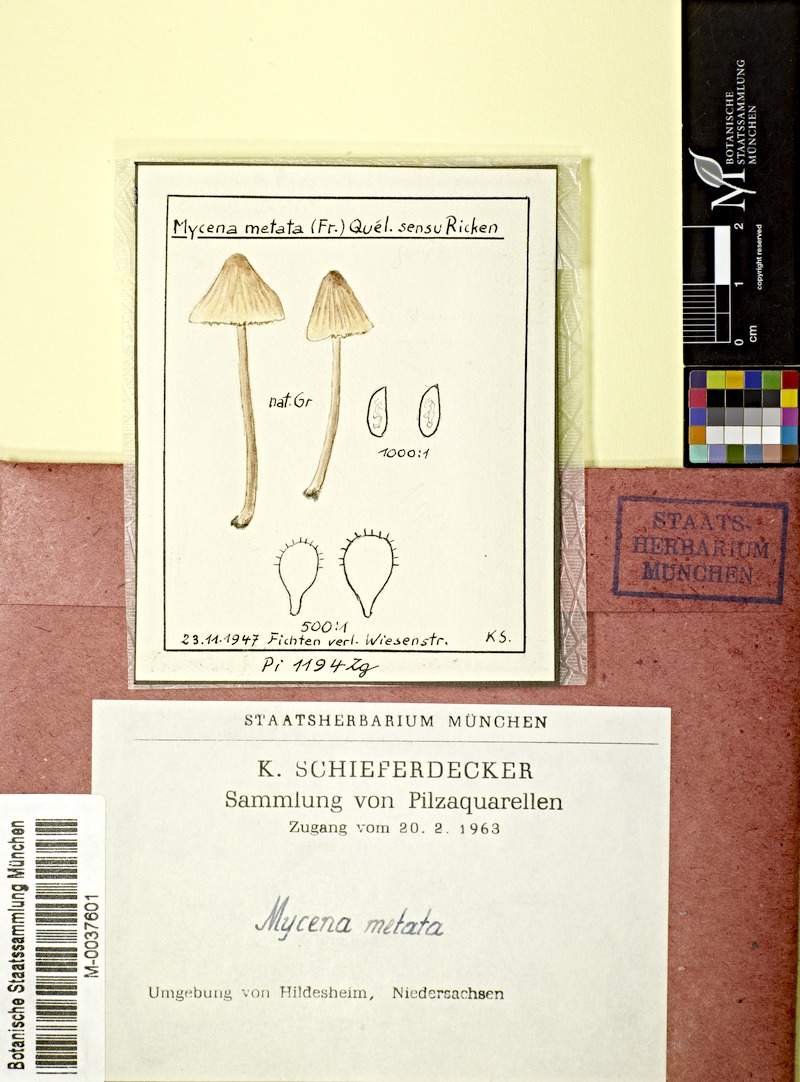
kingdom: Fungi
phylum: Basidiomycota
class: Agaricomycetes
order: Agaricales
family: Mycenaceae
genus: Mycena
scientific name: Mycena metata
